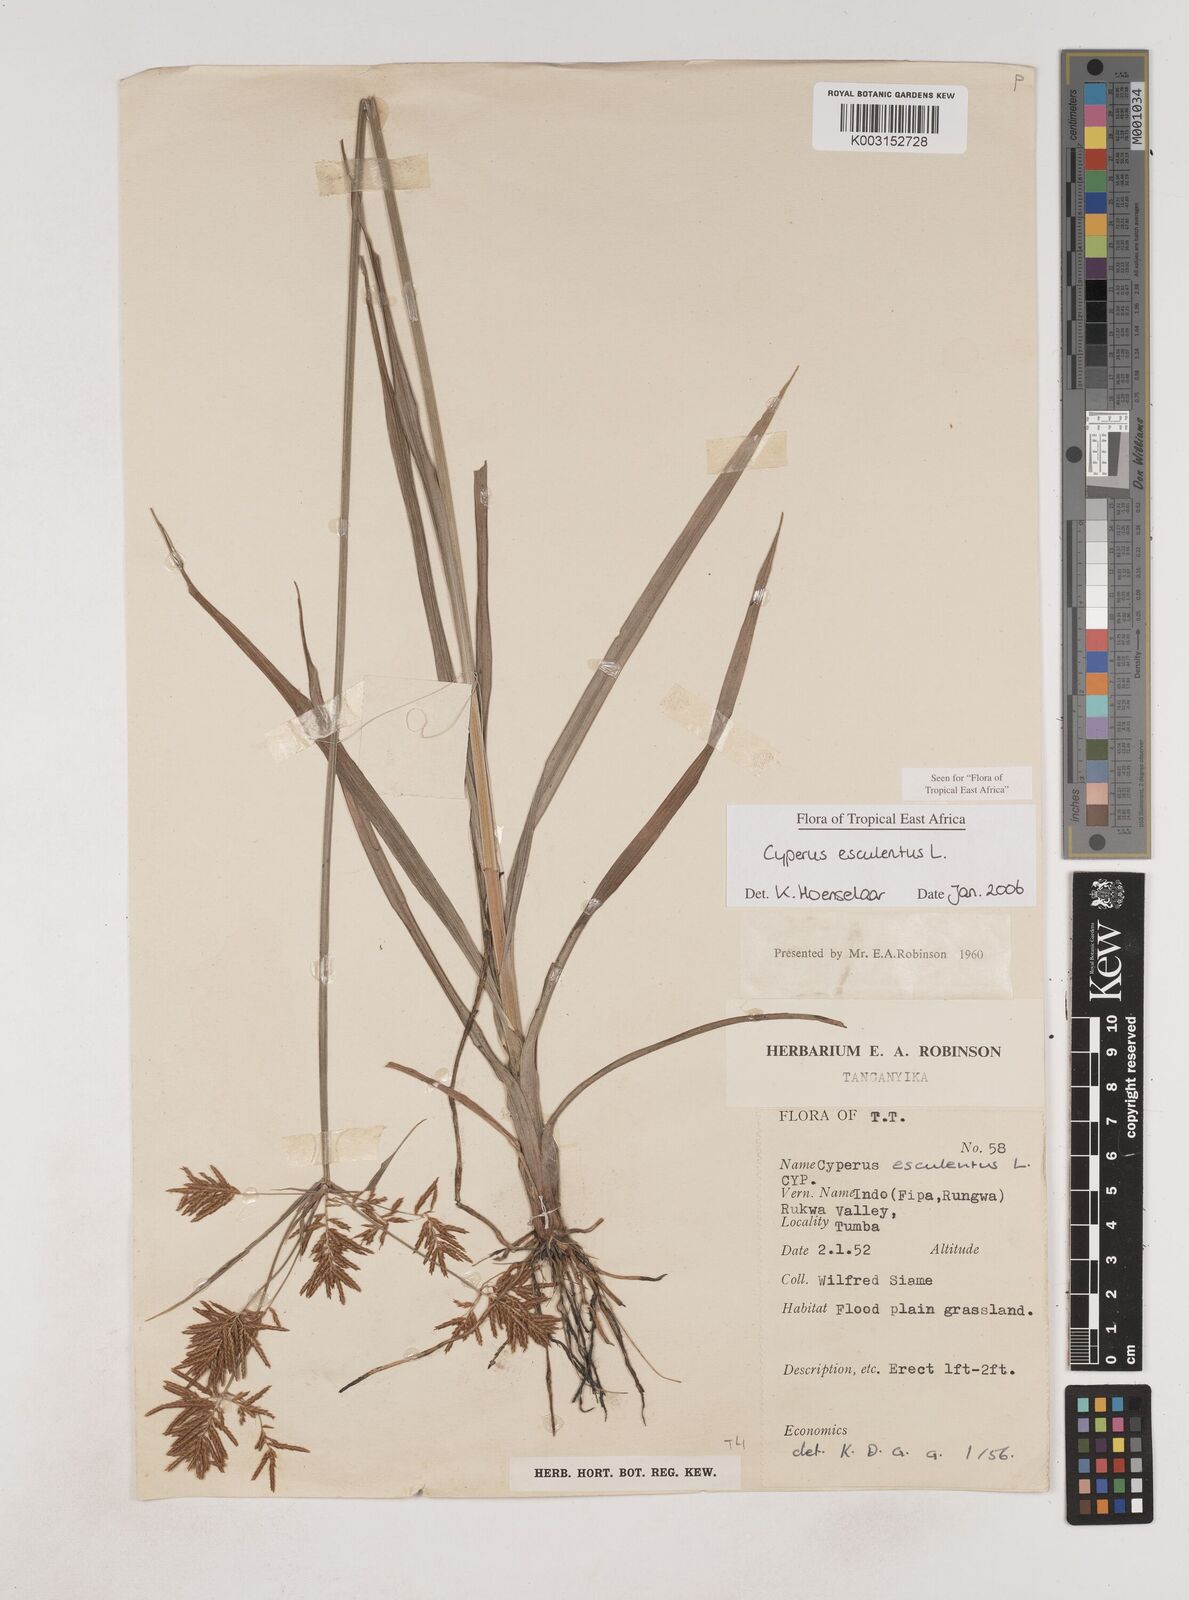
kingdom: Plantae
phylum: Tracheophyta
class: Liliopsida
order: Poales
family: Cyperaceae
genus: Cyperus
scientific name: Cyperus esculentus
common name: Yellow nutsedge
